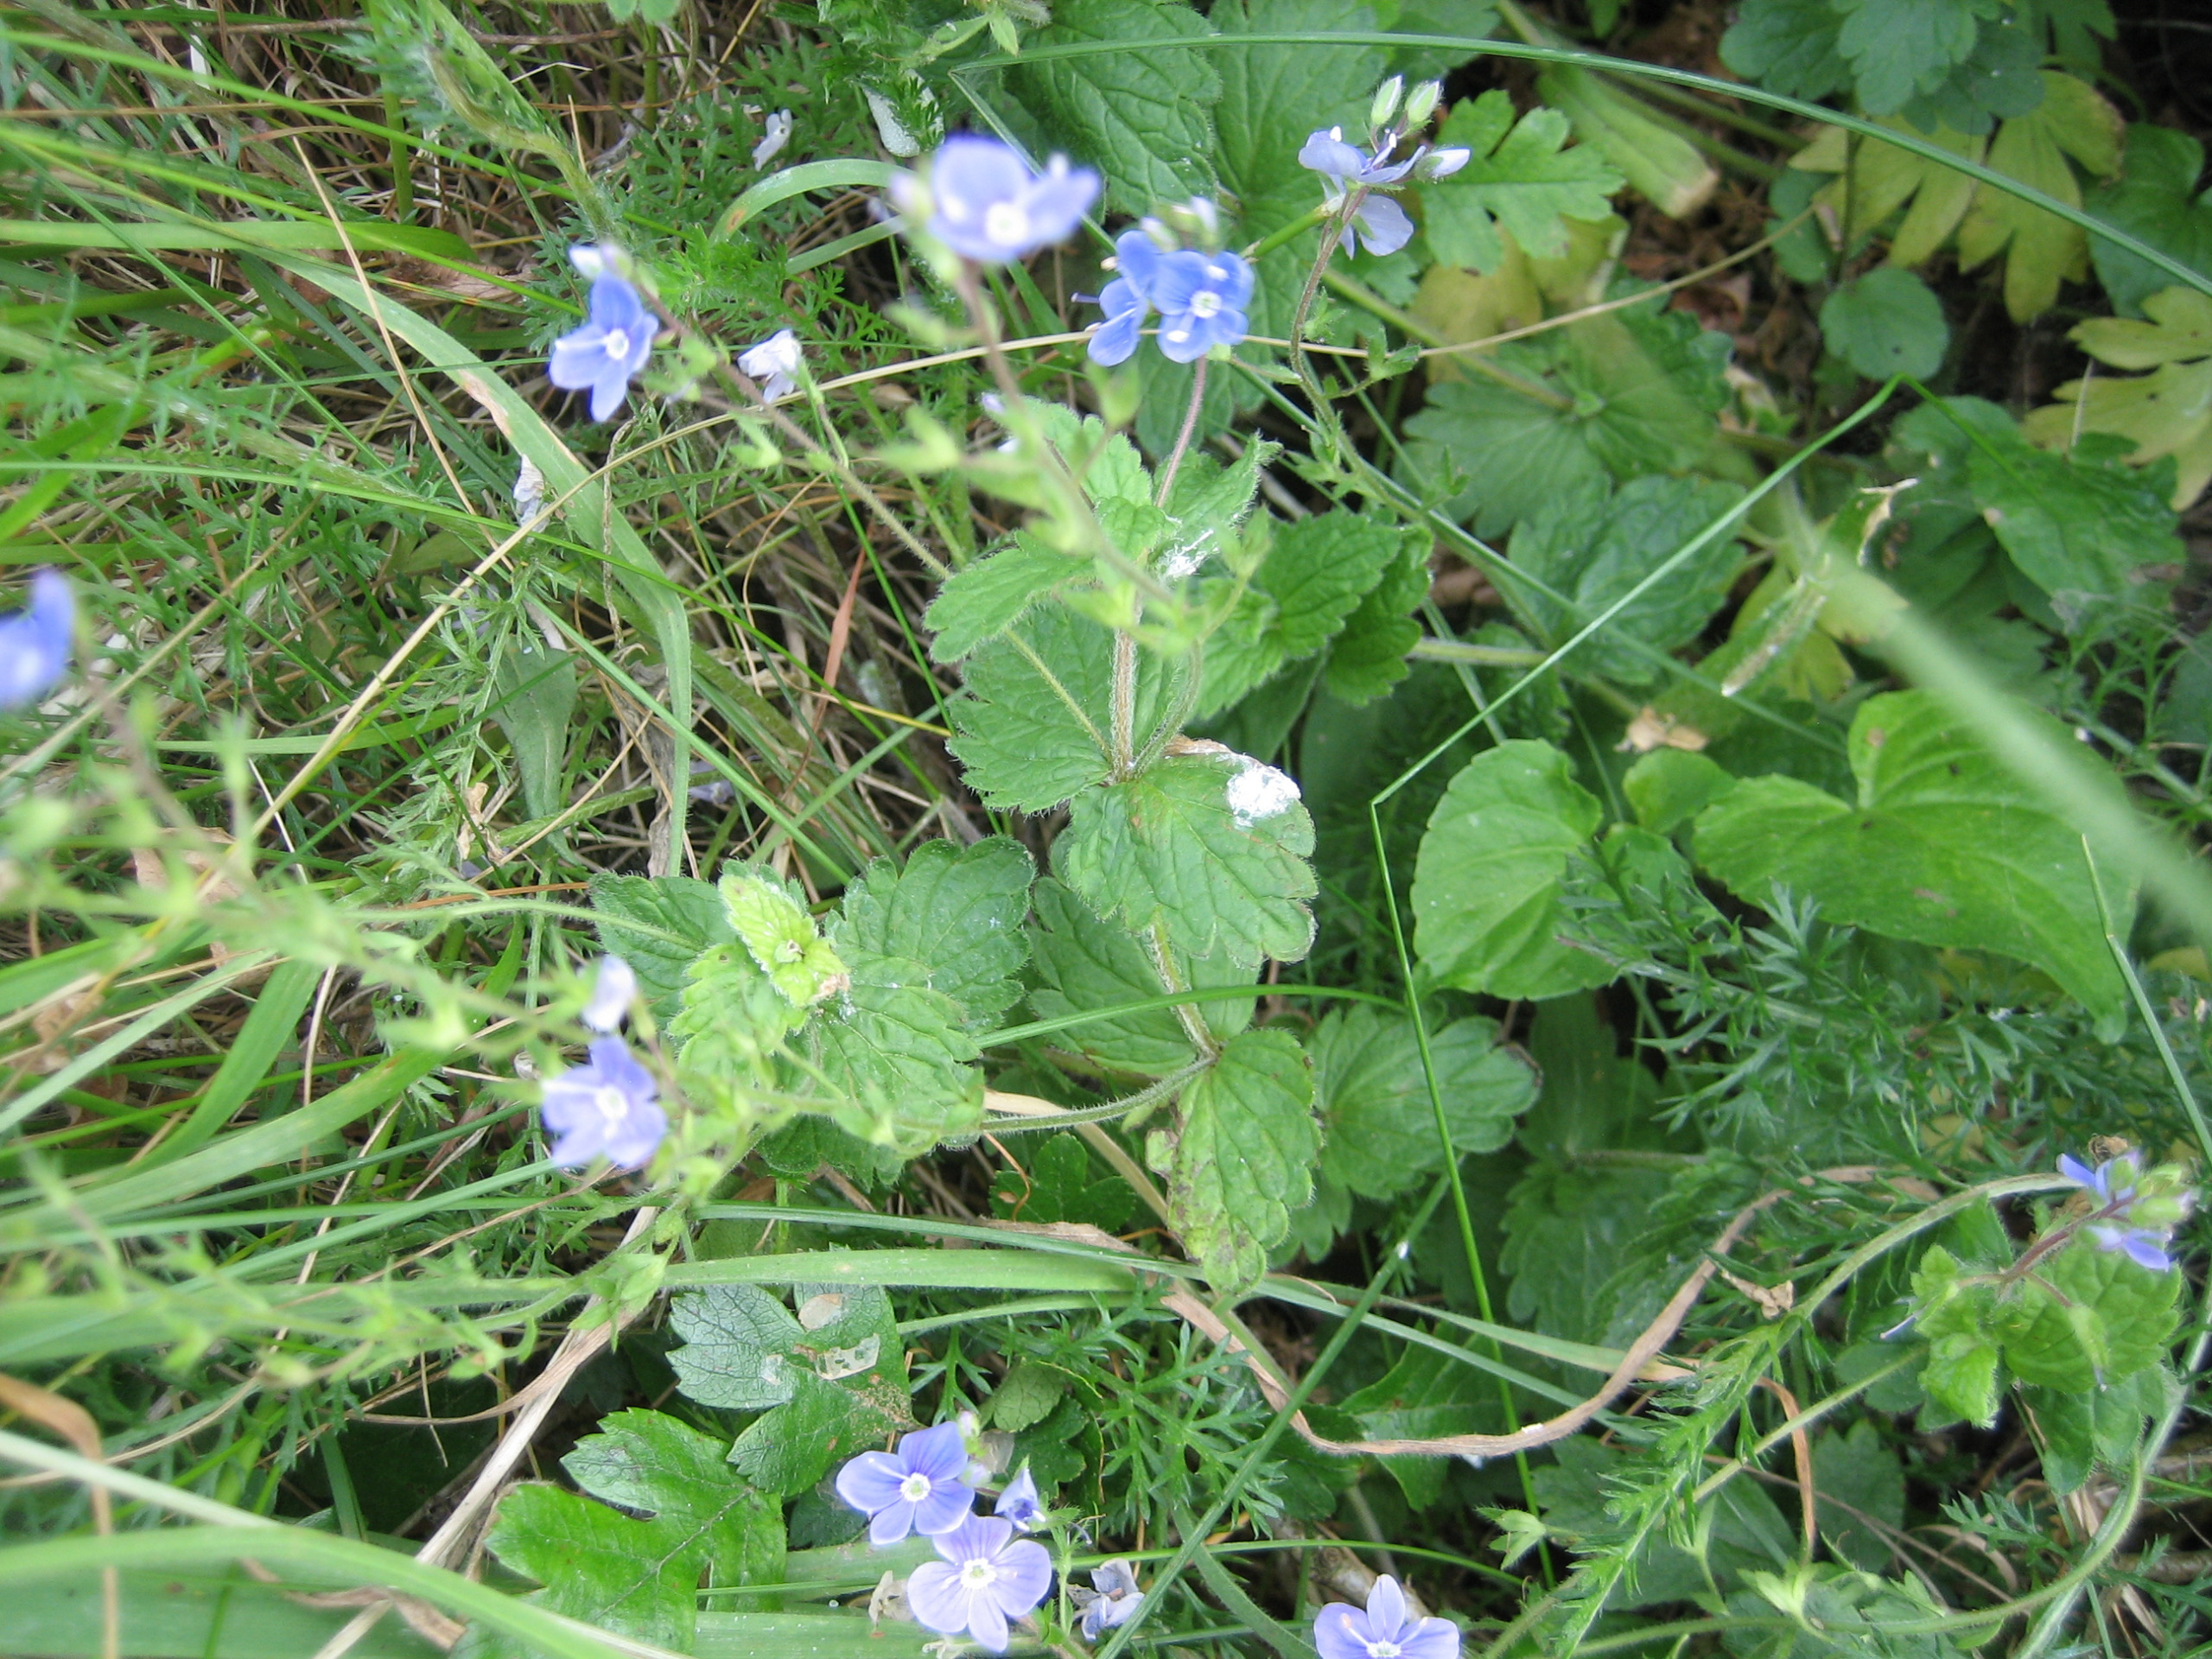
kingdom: Plantae
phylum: Tracheophyta
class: Magnoliopsida
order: Lamiales
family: Plantaginaceae
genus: Veronica
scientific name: Veronica chamaedrys
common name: Tveskægget ærenpris
